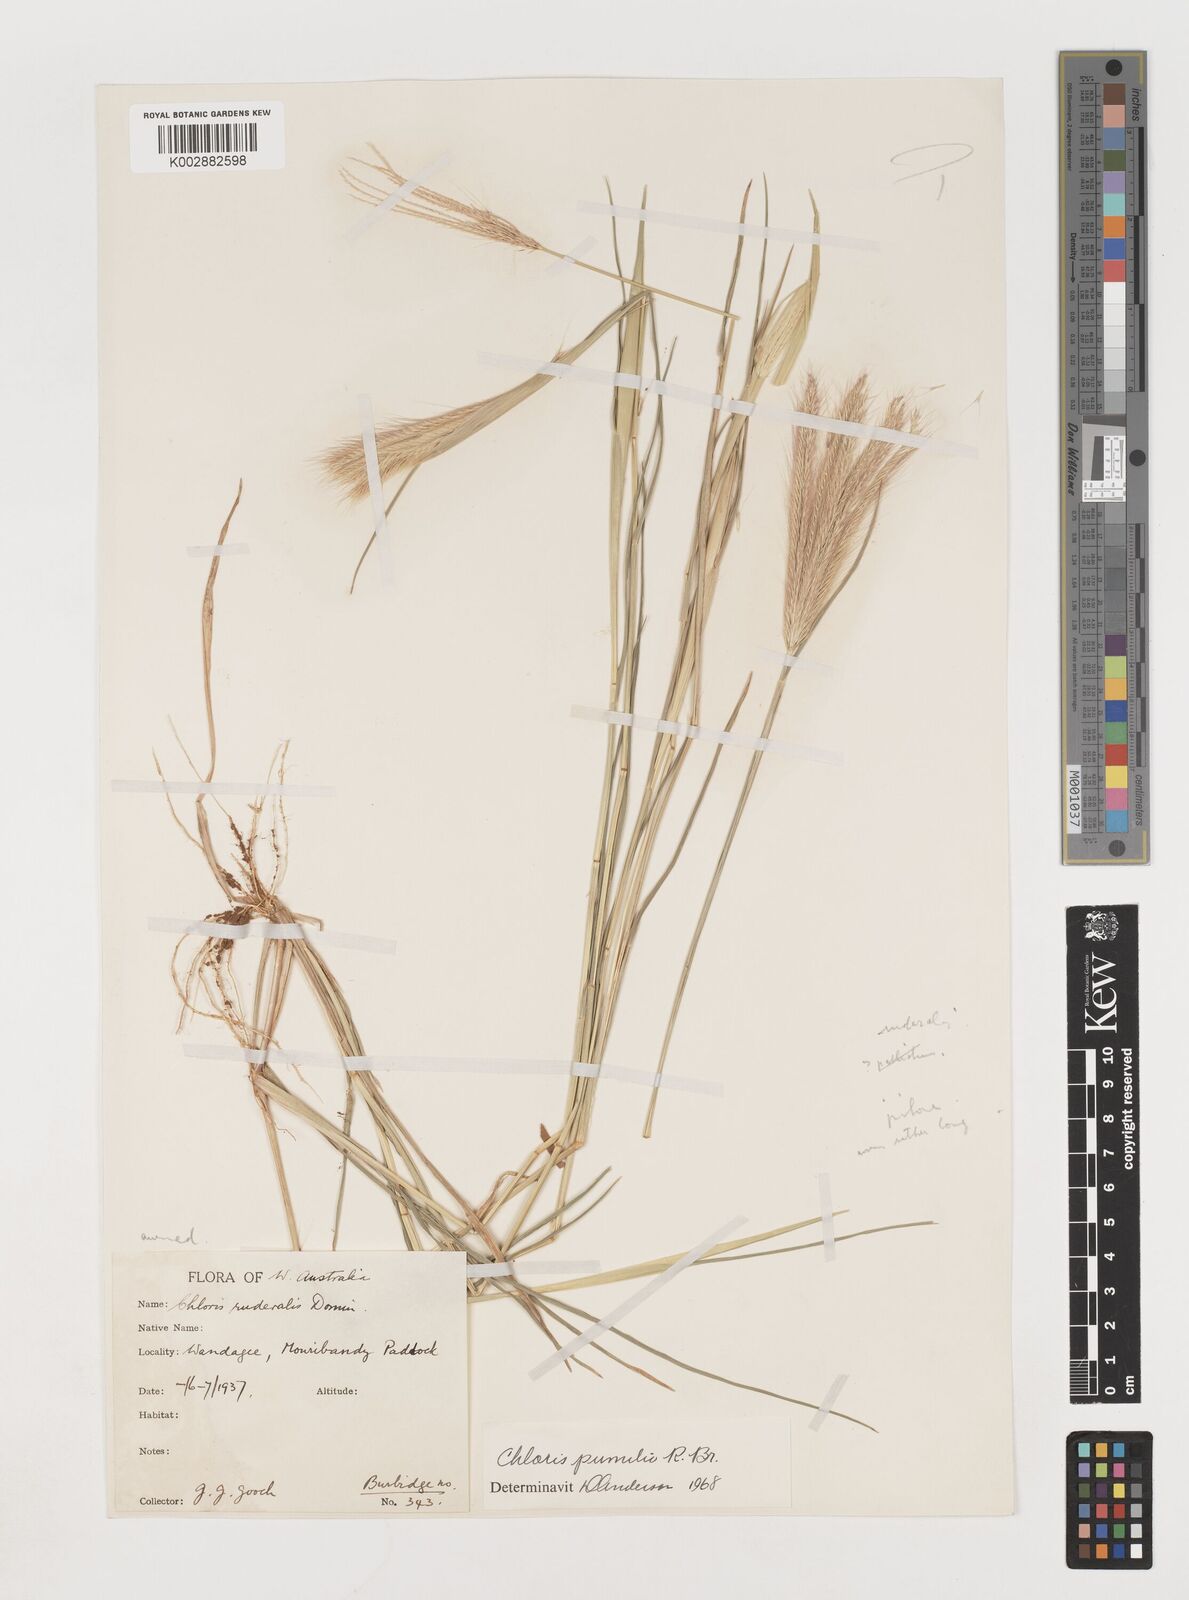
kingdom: Plantae
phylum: Tracheophyta
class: Liliopsida
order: Poales
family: Poaceae
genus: Chloris
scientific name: Chloris pumilio
